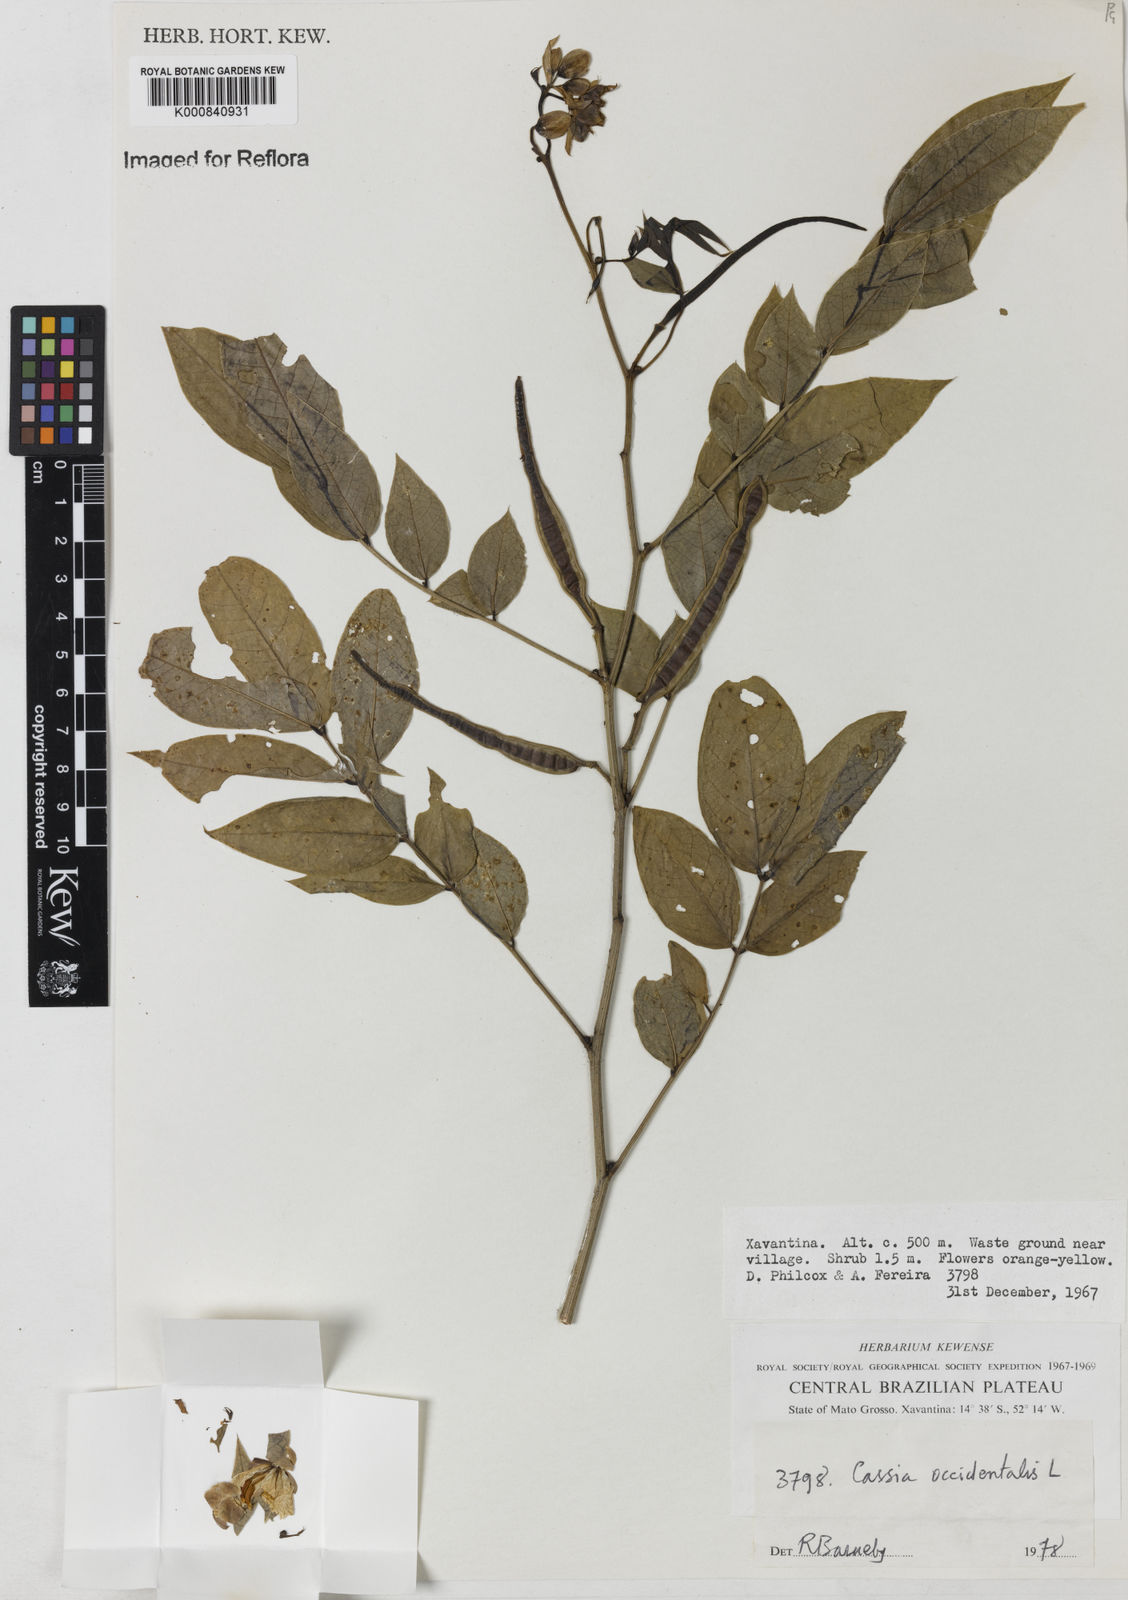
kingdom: Plantae
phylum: Tracheophyta
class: Magnoliopsida
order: Fabales
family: Fabaceae
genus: Senna
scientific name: Senna occidentalis
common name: Septicweed
